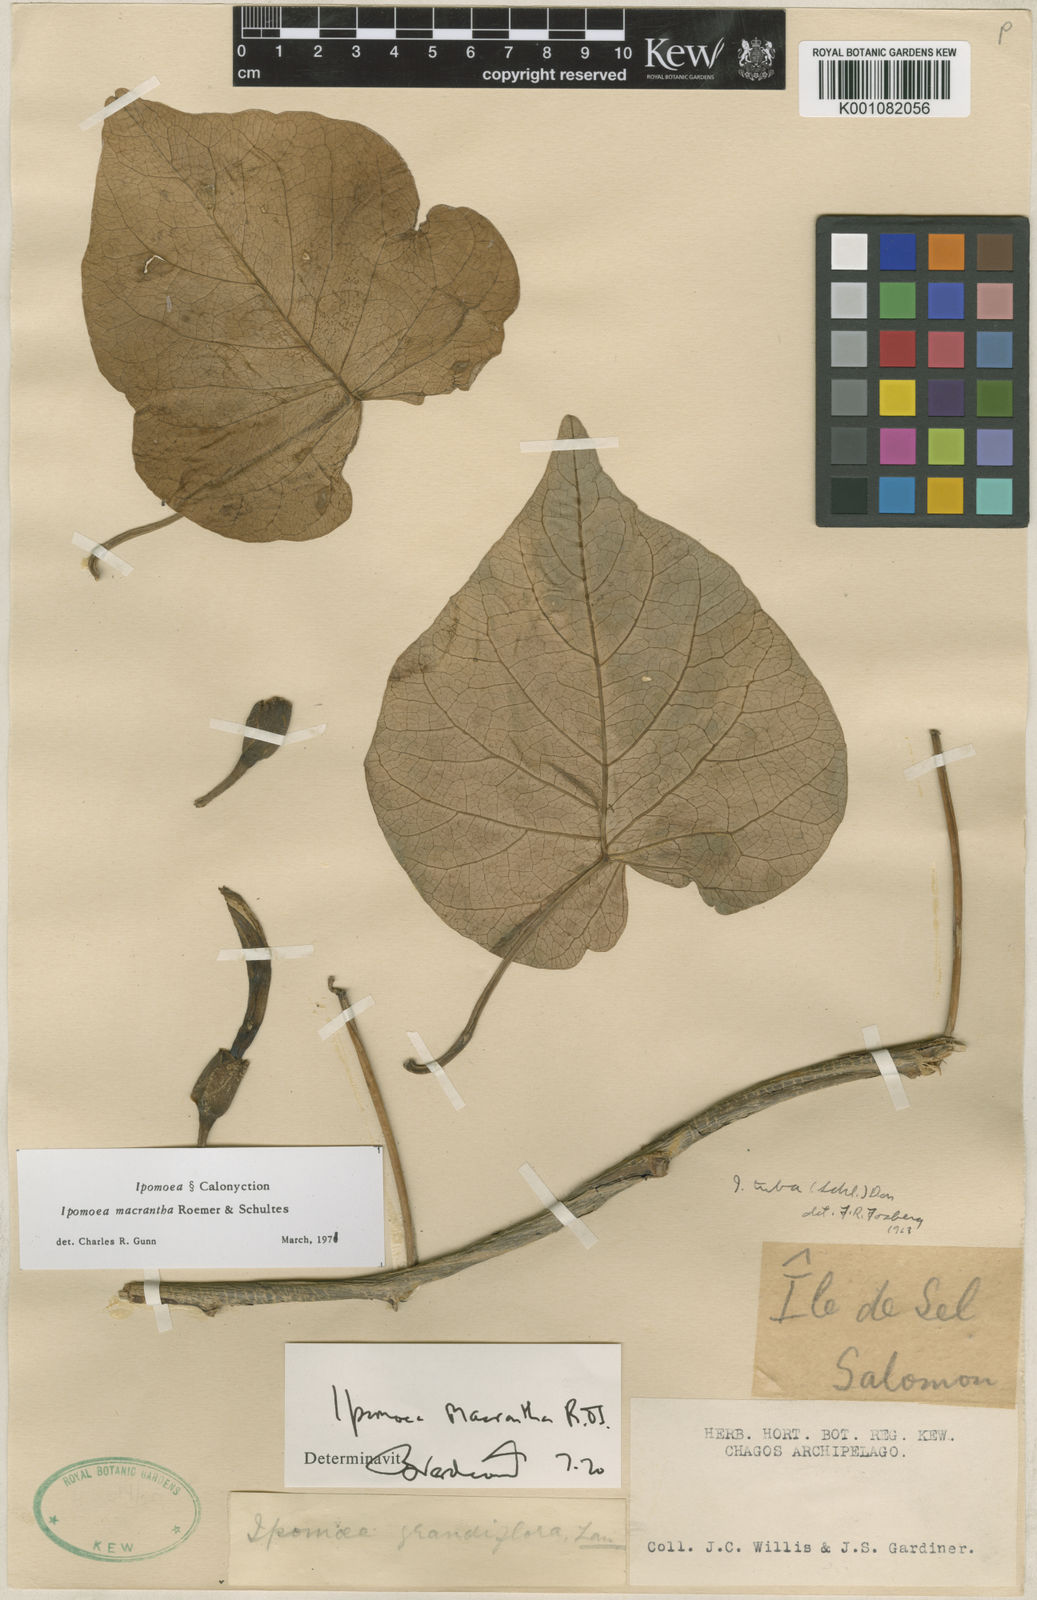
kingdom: Plantae
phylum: Tracheophyta
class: Magnoliopsida
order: Solanales
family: Convolvulaceae
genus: Ipomoea
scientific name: Ipomoea violacea
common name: Beach moonflower
